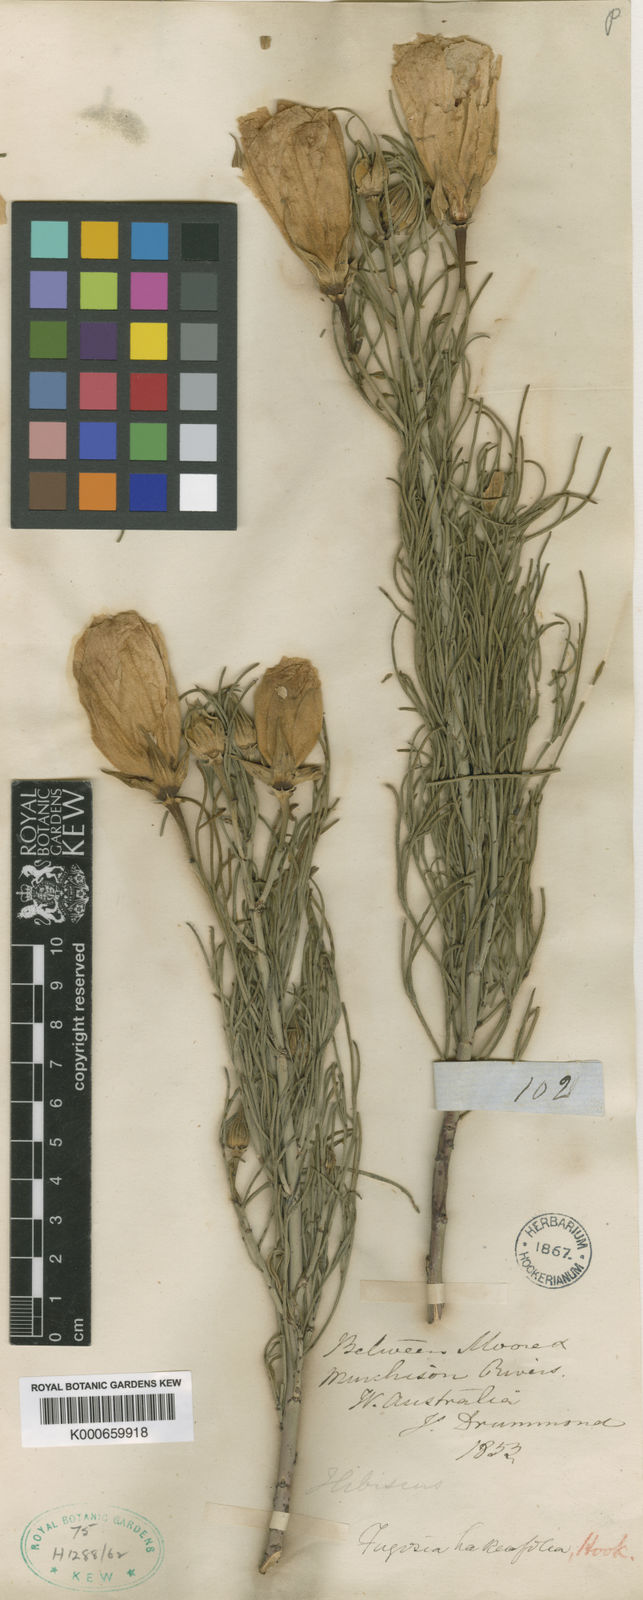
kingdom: Plantae
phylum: Tracheophyta
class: Magnoliopsida
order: Malvales
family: Malvaceae
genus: Hibiscus
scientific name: Hibiscus hakeifolius
